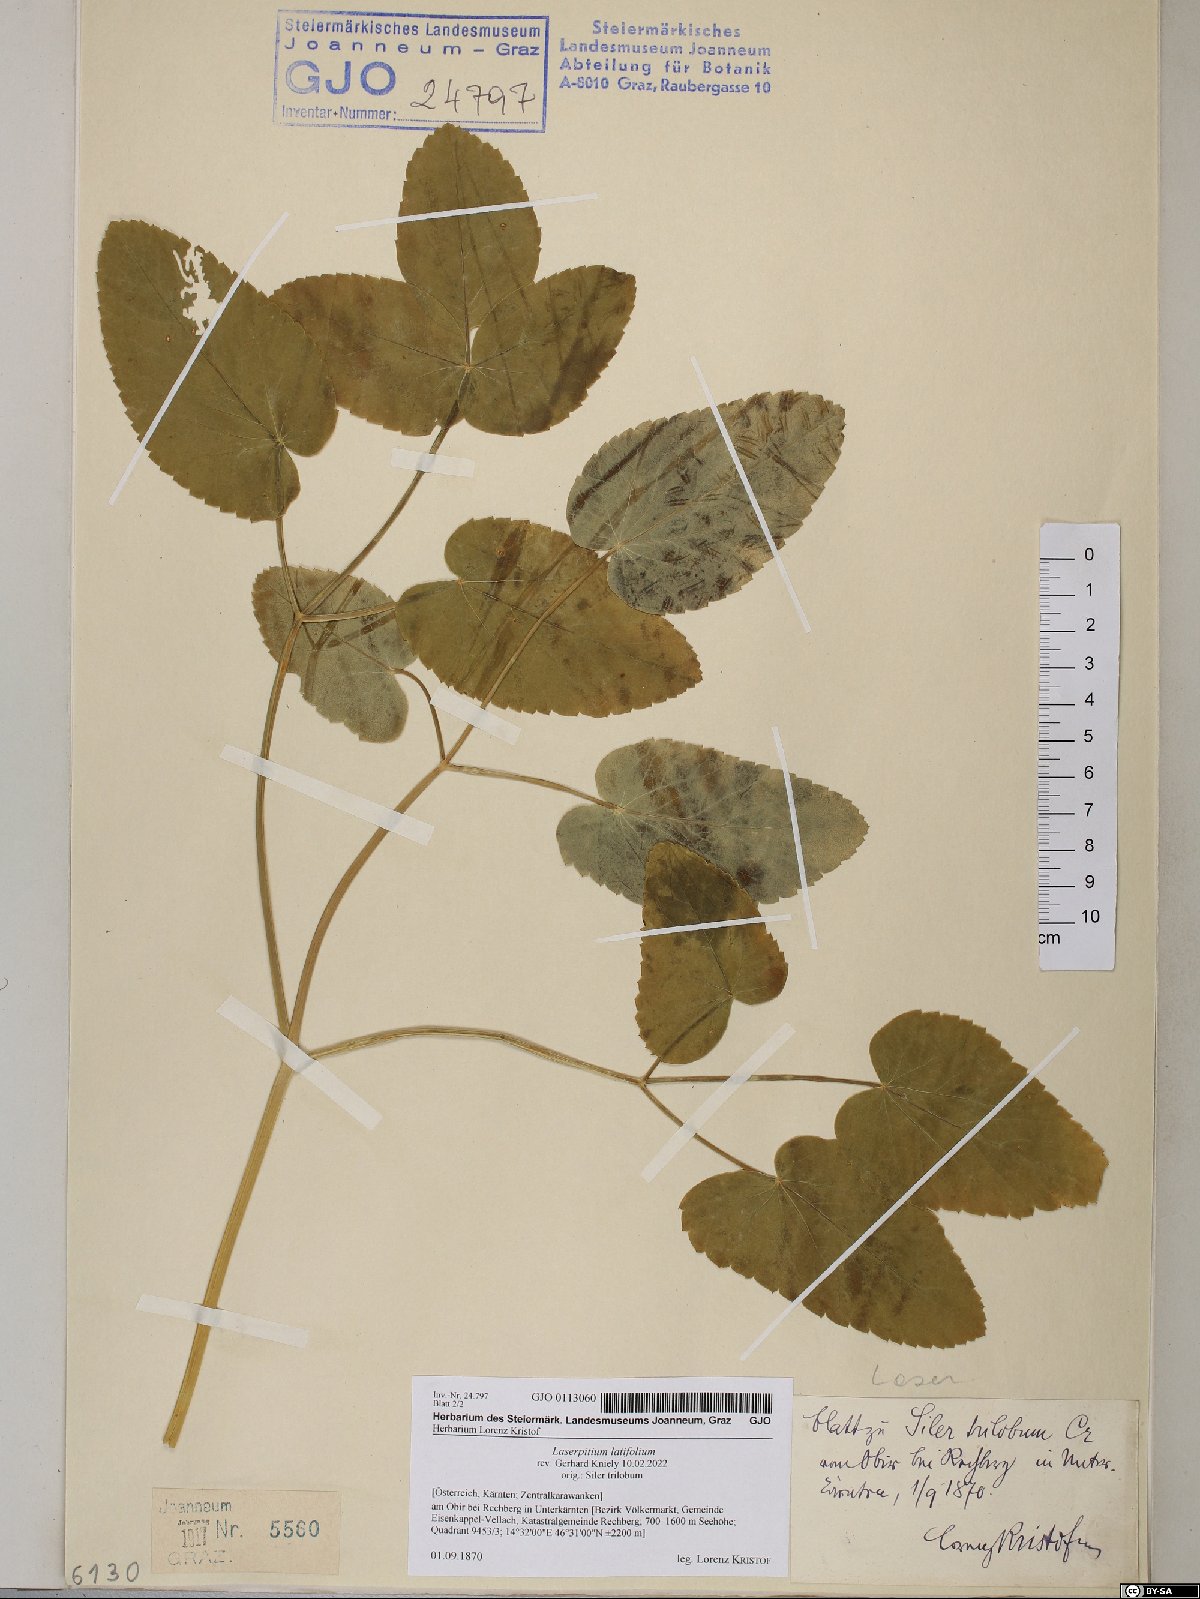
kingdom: Plantae
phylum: Tracheophyta
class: Magnoliopsida
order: Apiales
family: Apiaceae
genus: Laserpitium
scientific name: Laserpitium latifolium
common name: Broadleaf sermountain
